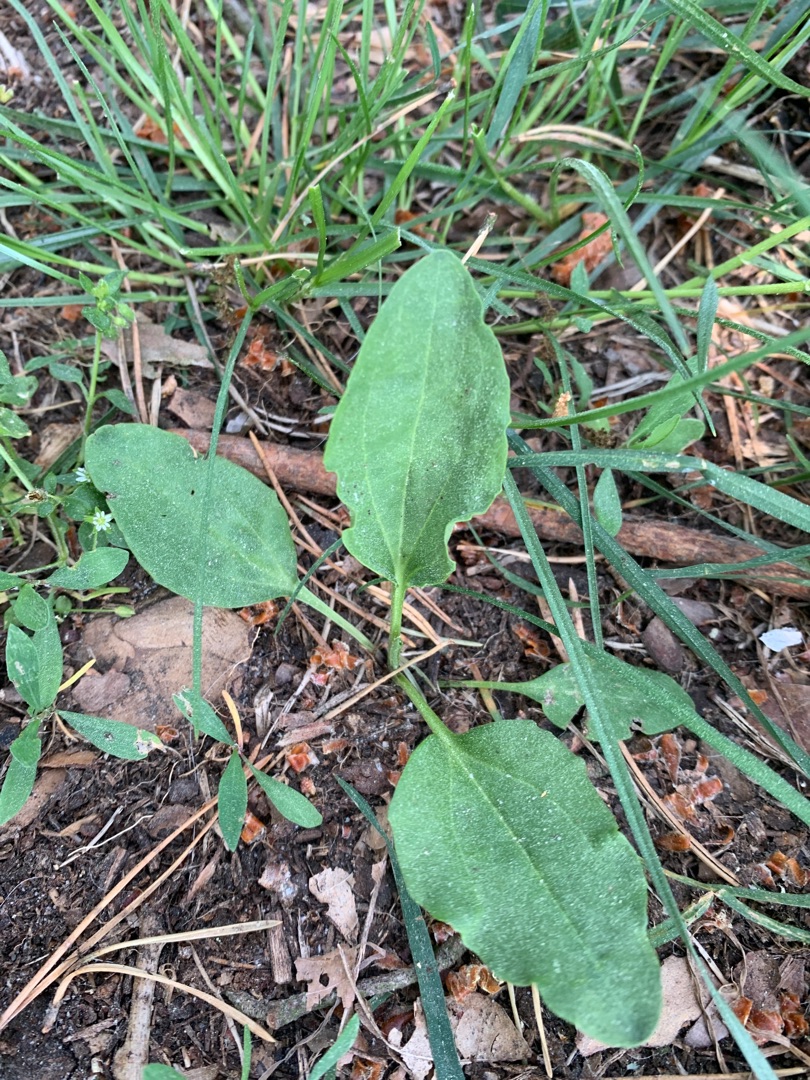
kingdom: Plantae
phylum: Tracheophyta
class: Magnoliopsida
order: Lamiales
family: Plantaginaceae
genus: Plantago
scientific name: Plantago major
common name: Glat vejbred
